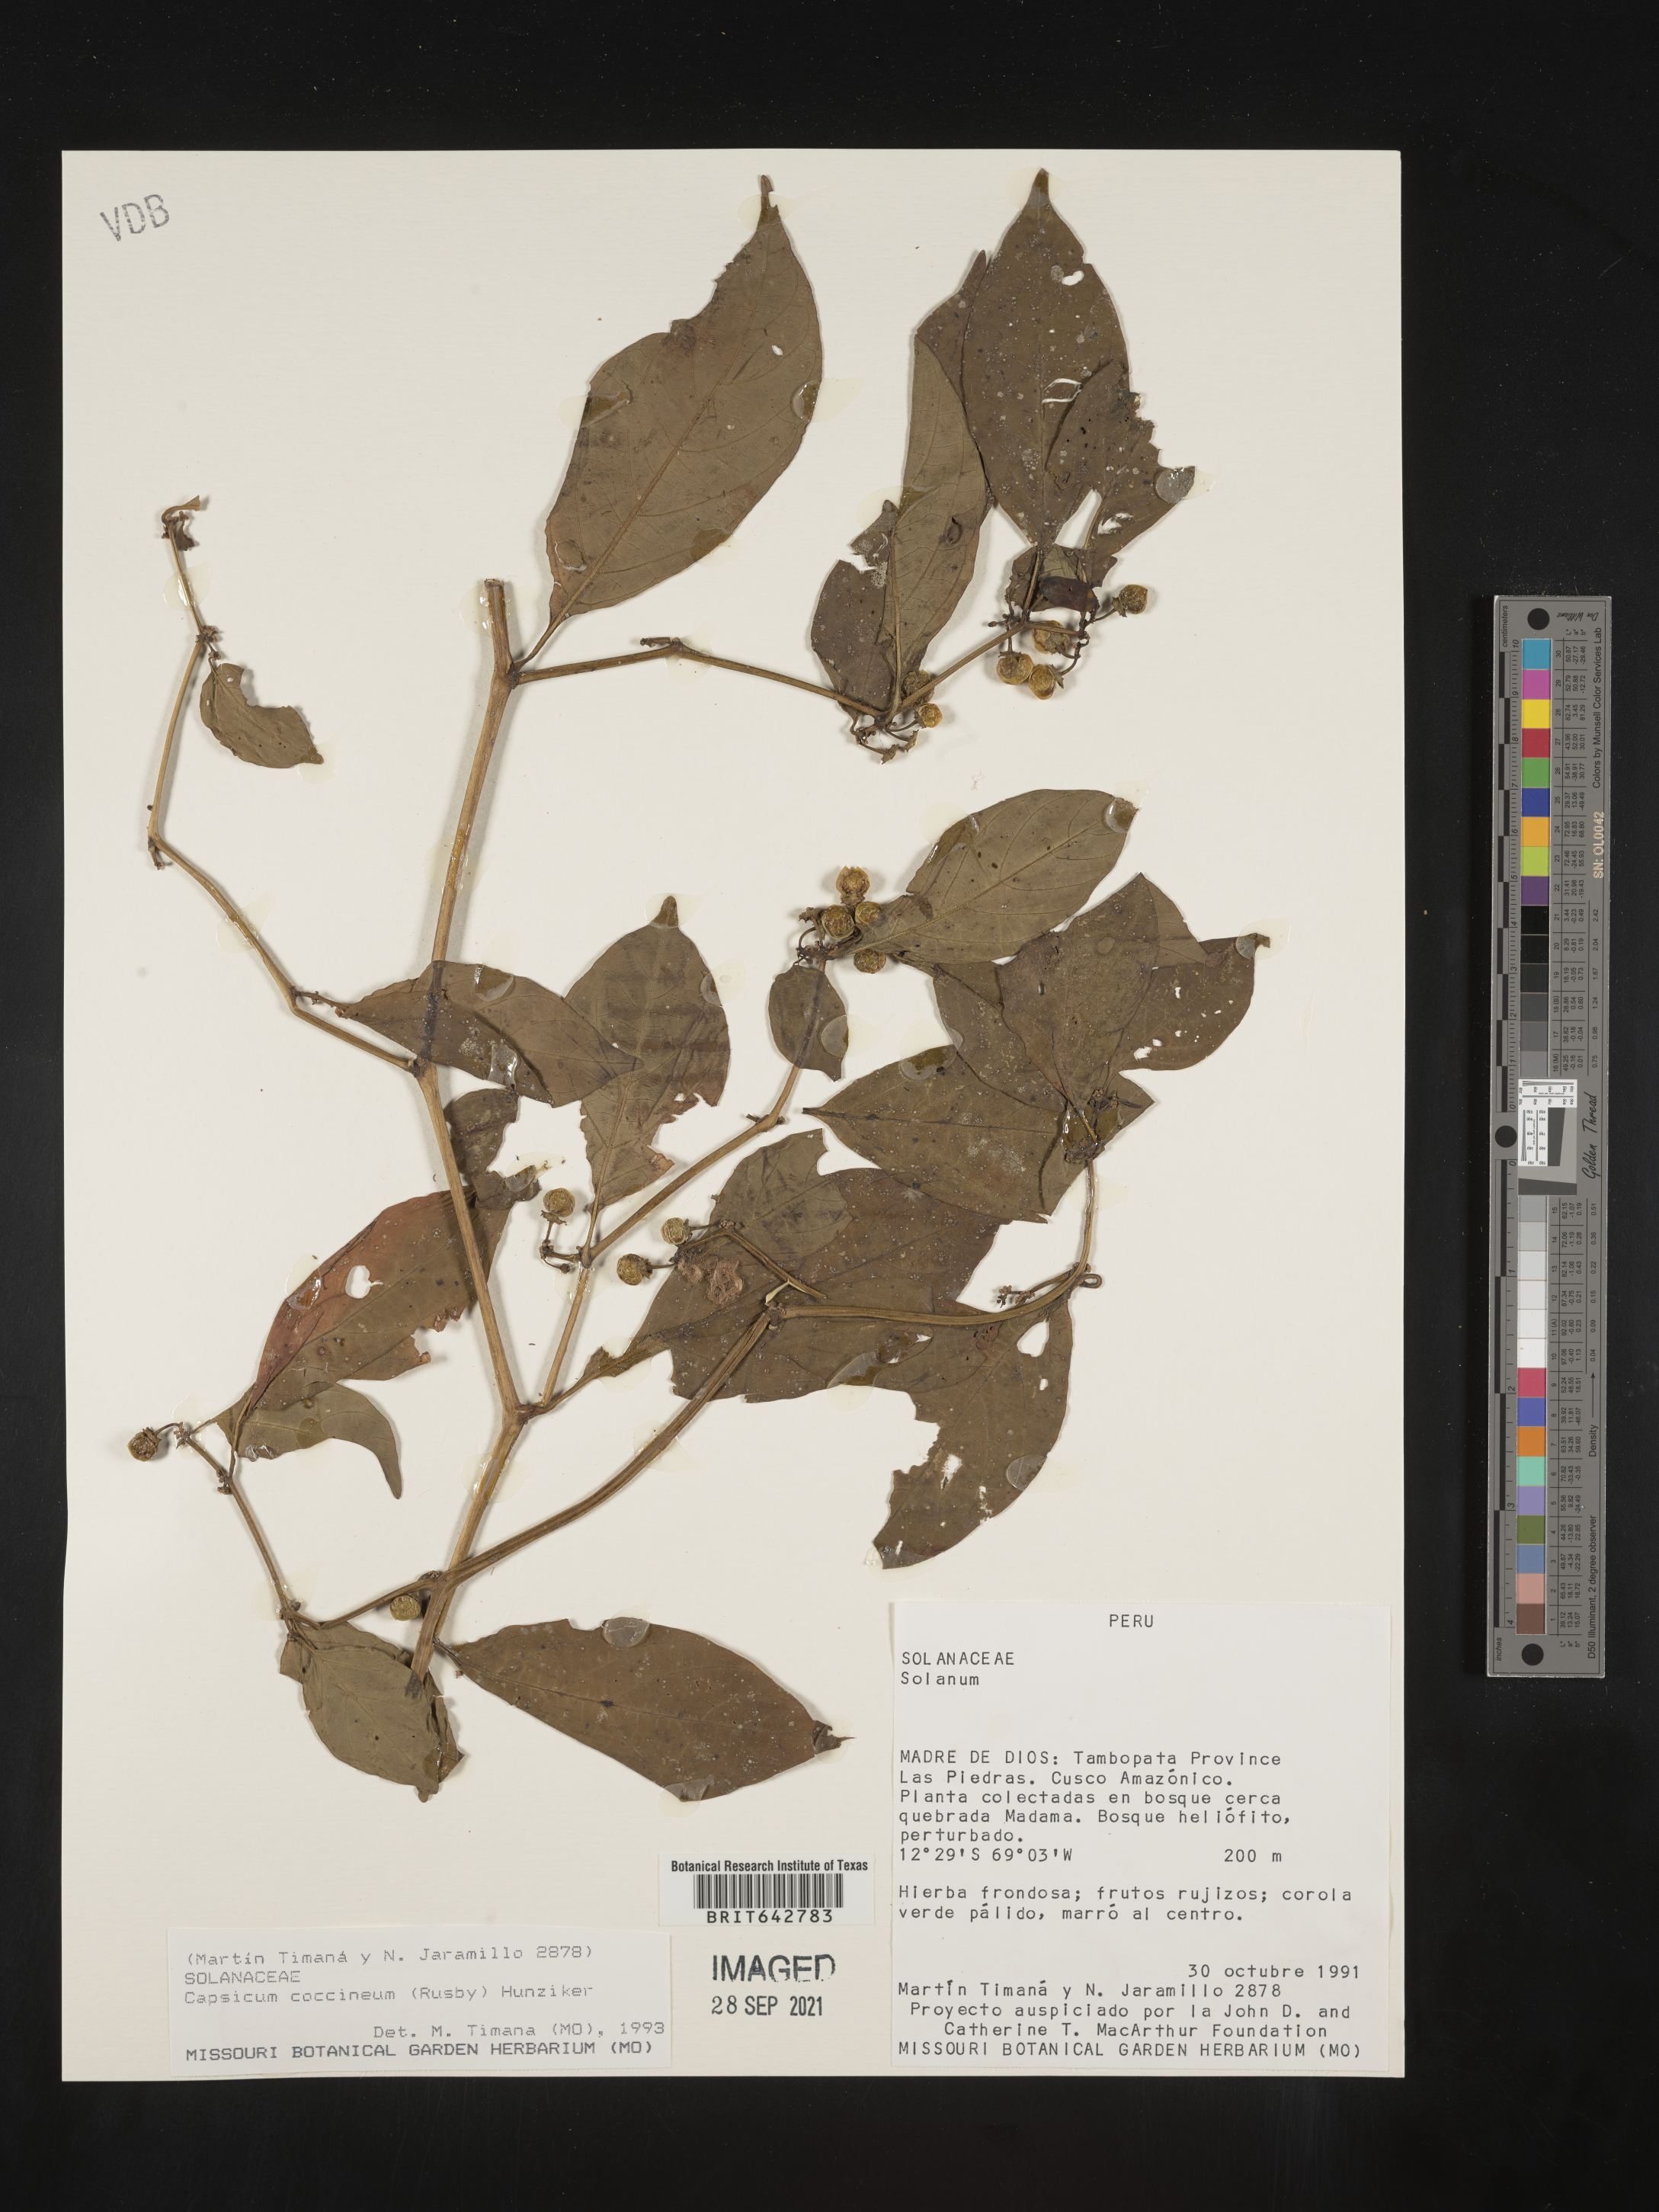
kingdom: Plantae
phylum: Tracheophyta
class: Magnoliopsida
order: Solanales
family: Solanaceae
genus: Capsicum
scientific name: Capsicum
